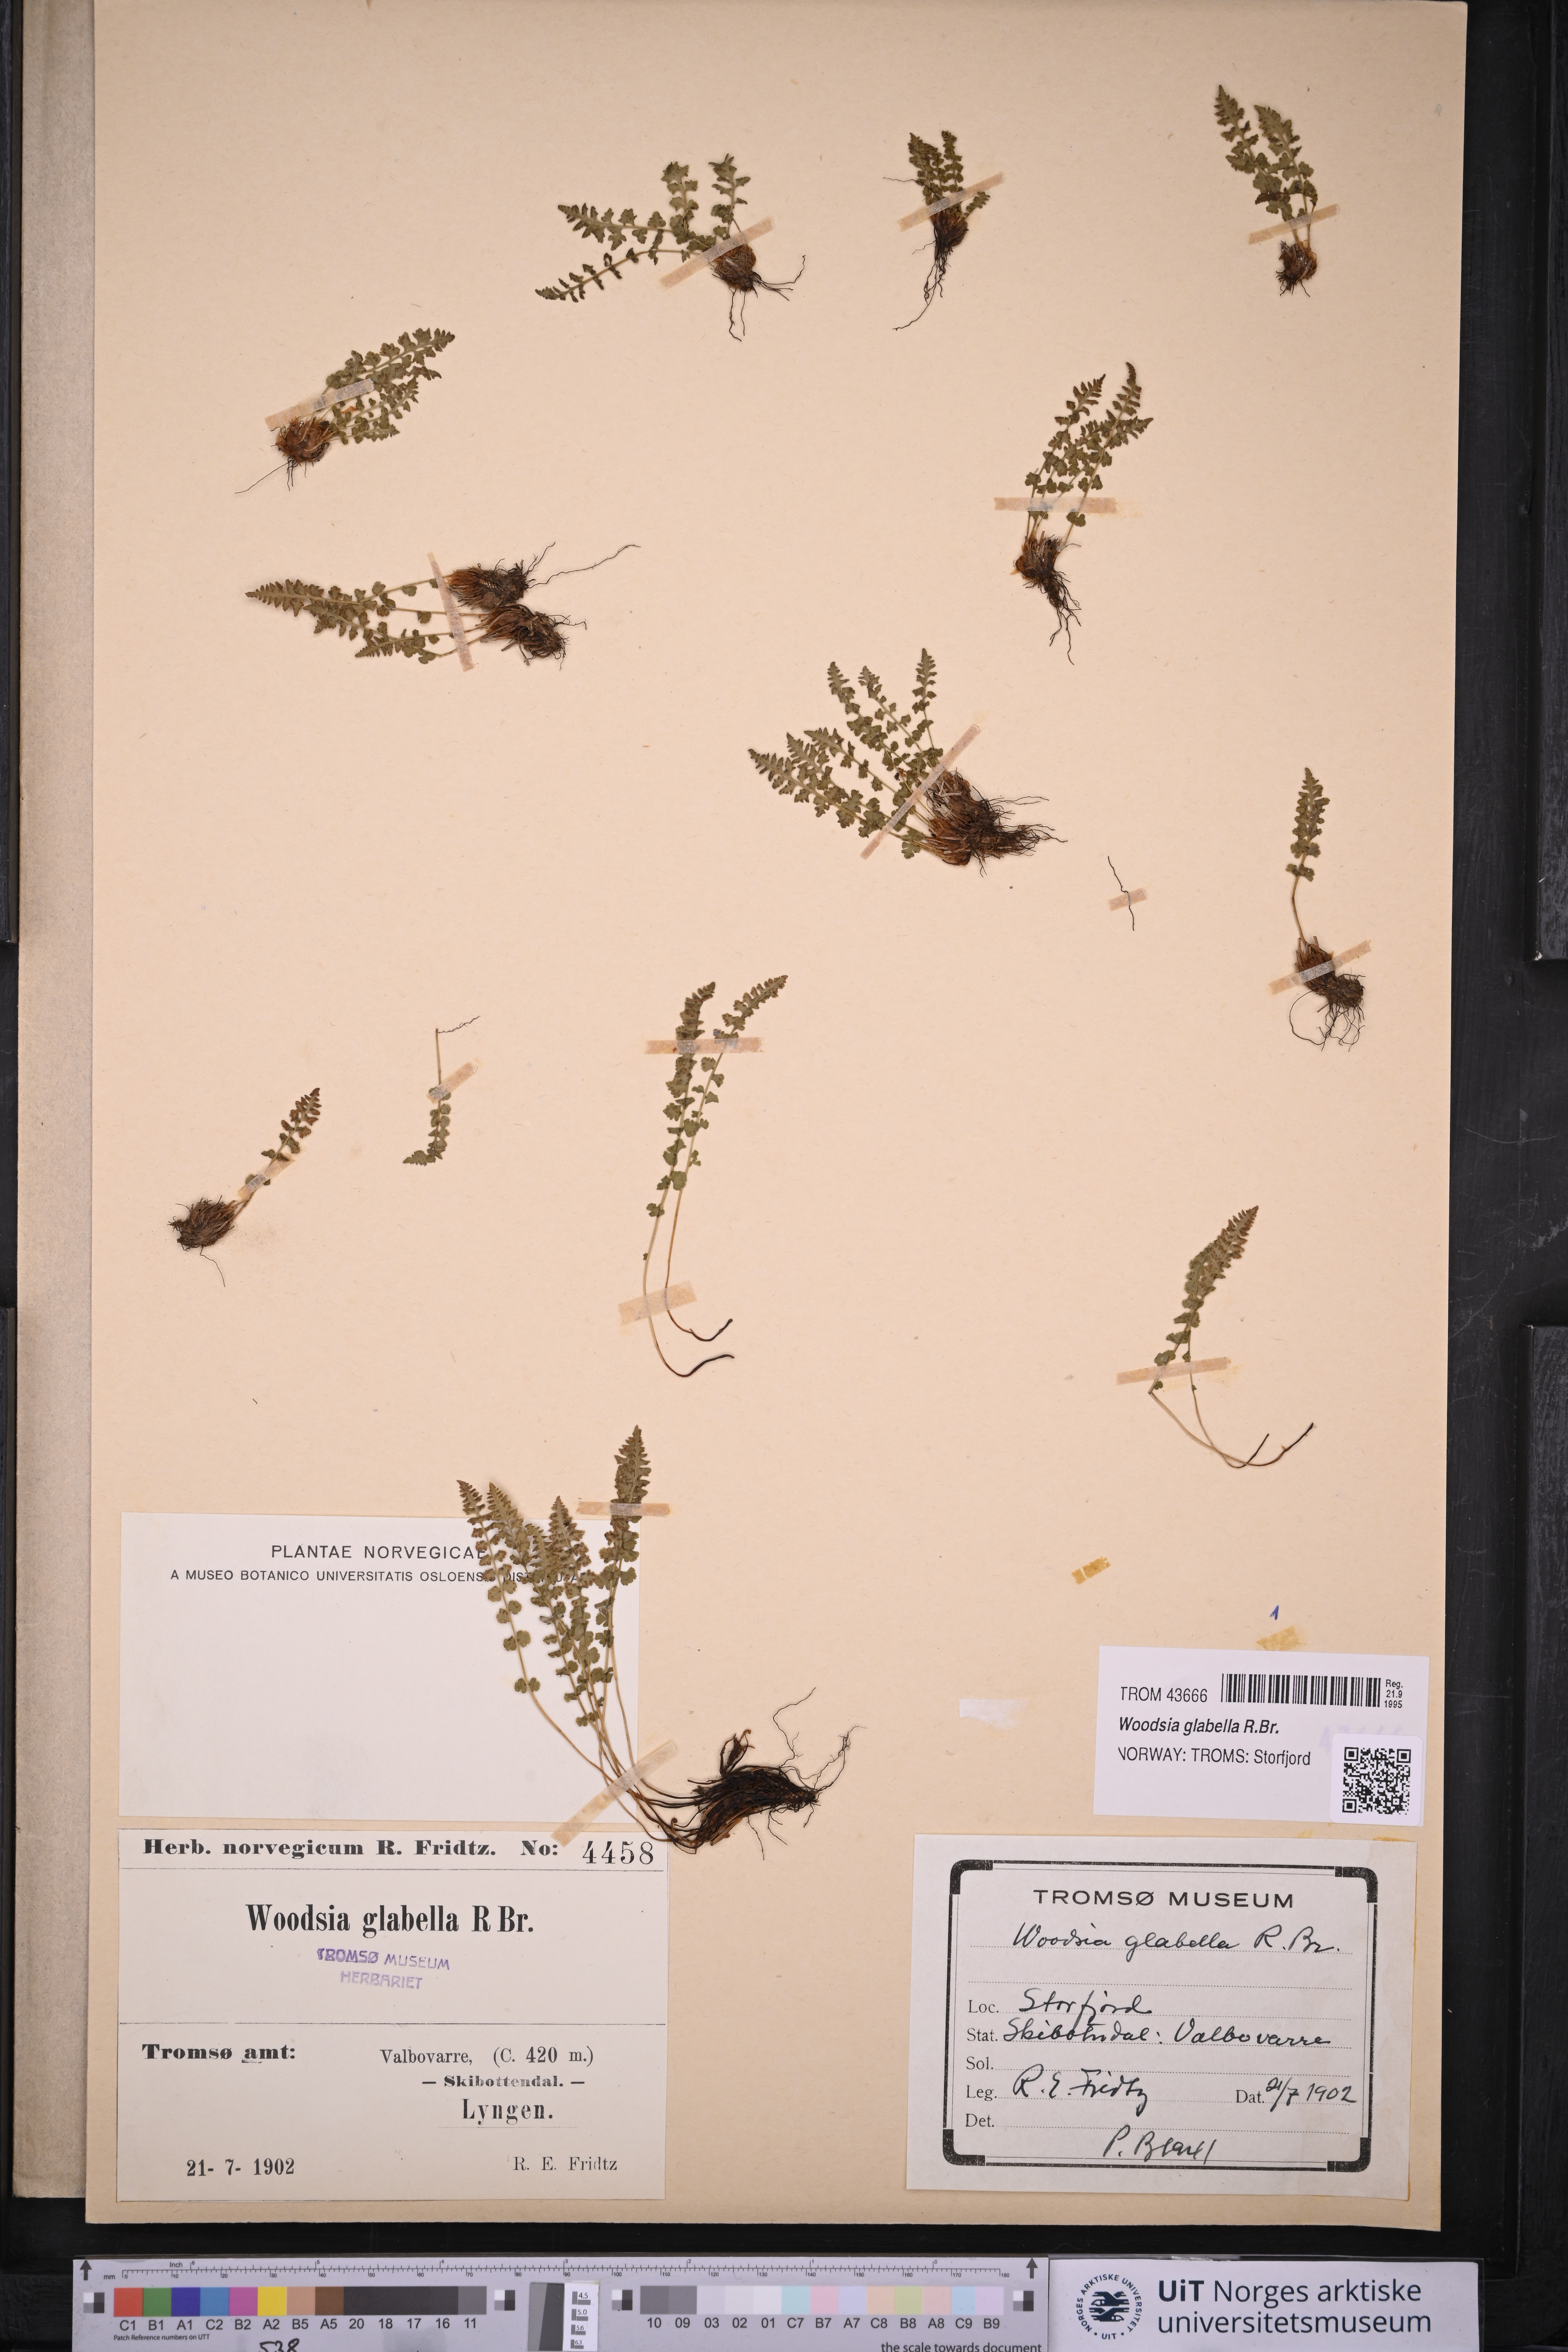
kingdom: Plantae
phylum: Tracheophyta
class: Polypodiopsida
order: Polypodiales
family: Woodsiaceae
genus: Woodsia
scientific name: Woodsia glabella
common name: Smooth woodsia
